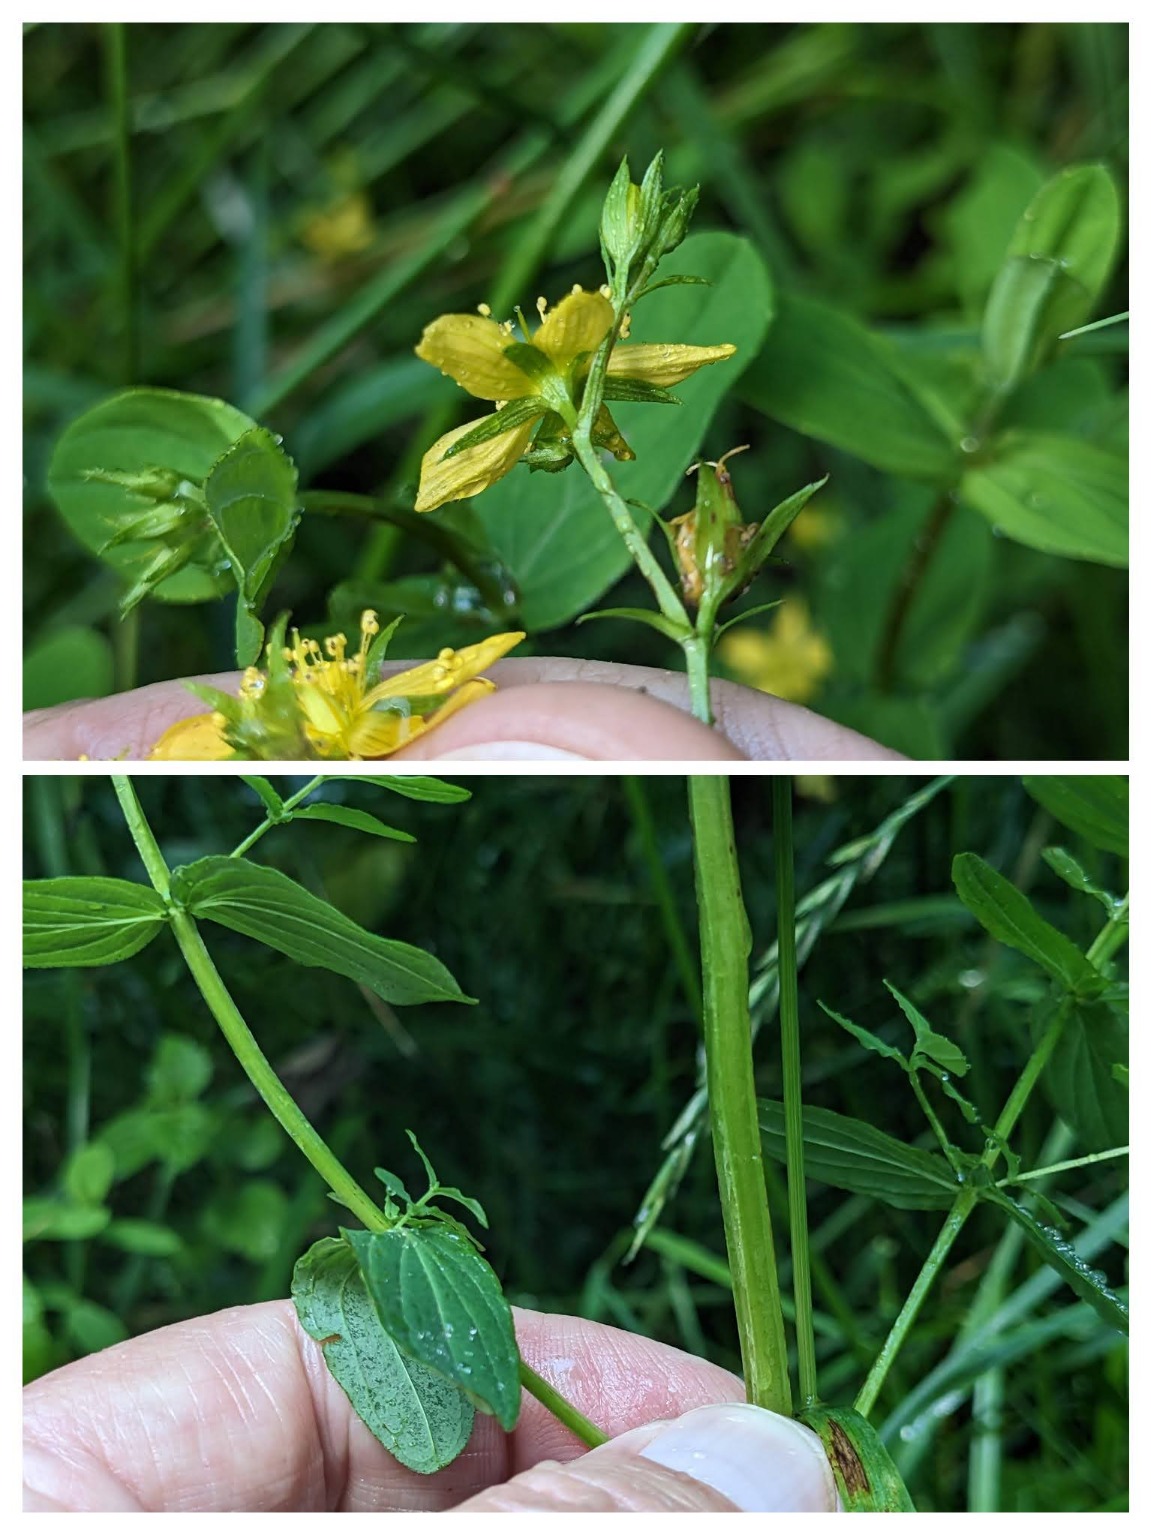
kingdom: Plantae
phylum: Tracheophyta
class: Magnoliopsida
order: Malpighiales
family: Hypericaceae
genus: Hypericum
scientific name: Hypericum tetrapterum
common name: Vinget perikon
